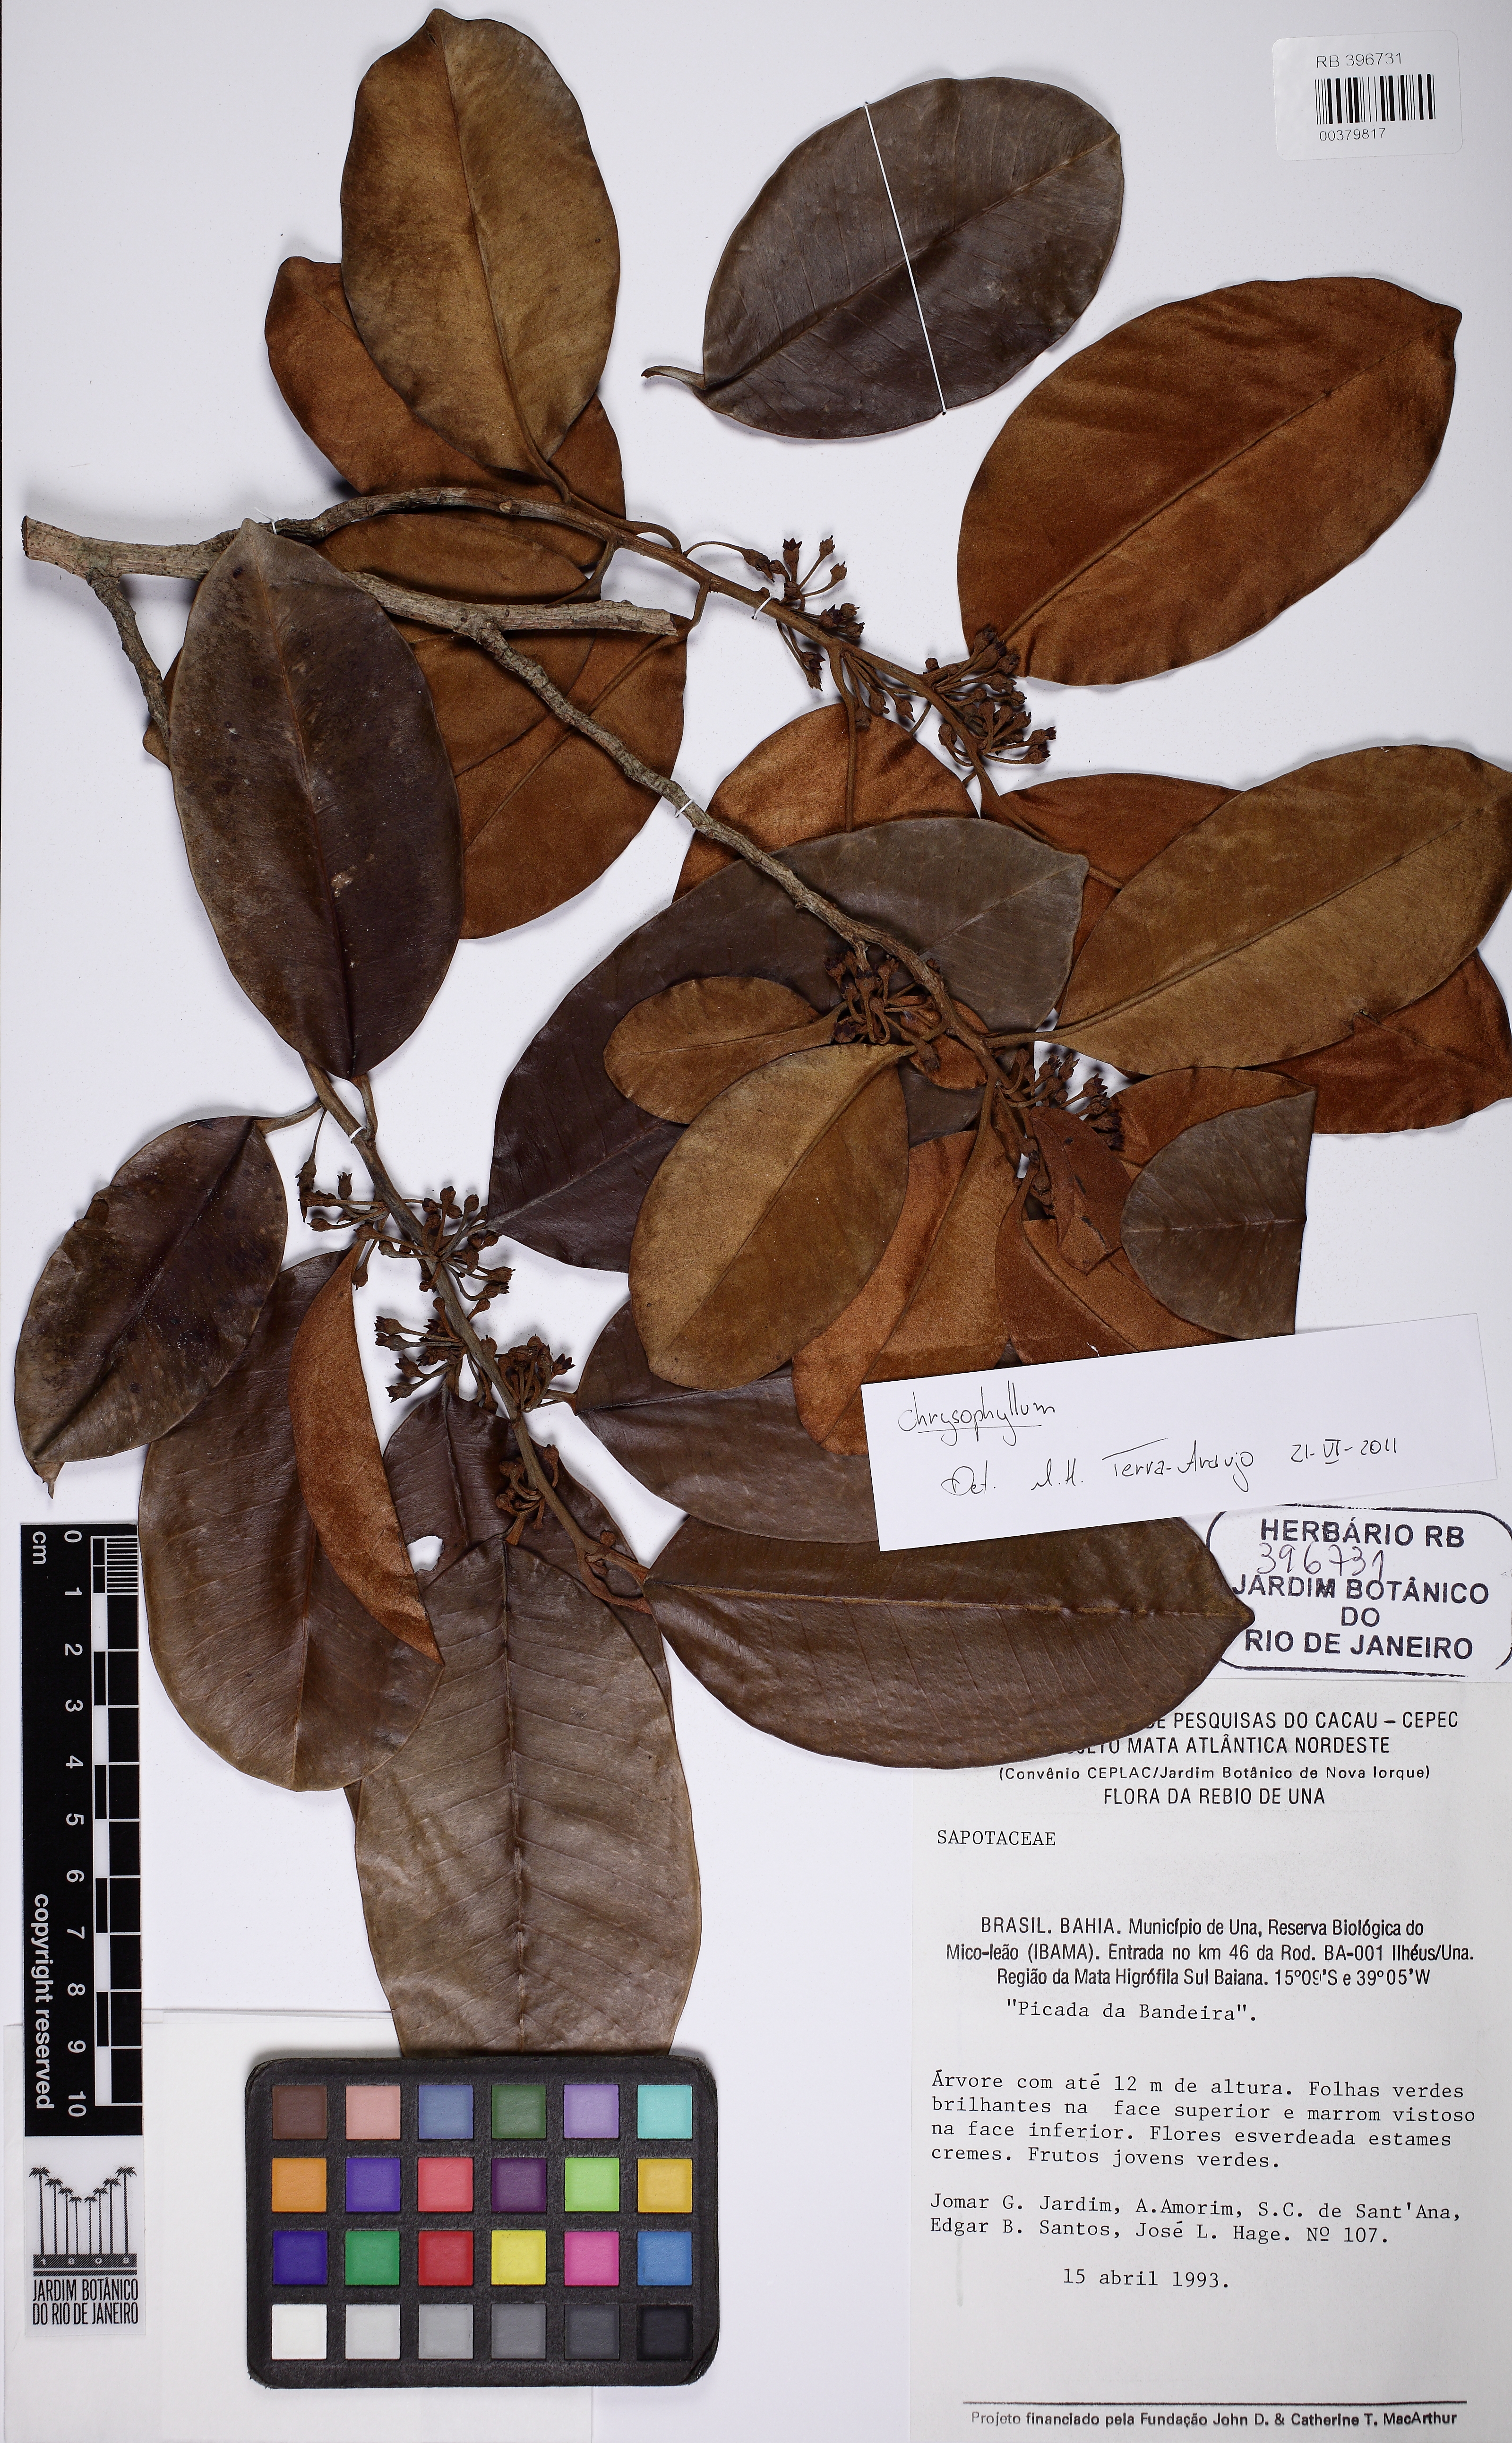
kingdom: Plantae
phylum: Tracheophyta
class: Magnoliopsida
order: Ericales
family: Sapotaceae
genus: Chrysophyllum
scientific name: Chrysophyllum splendens
